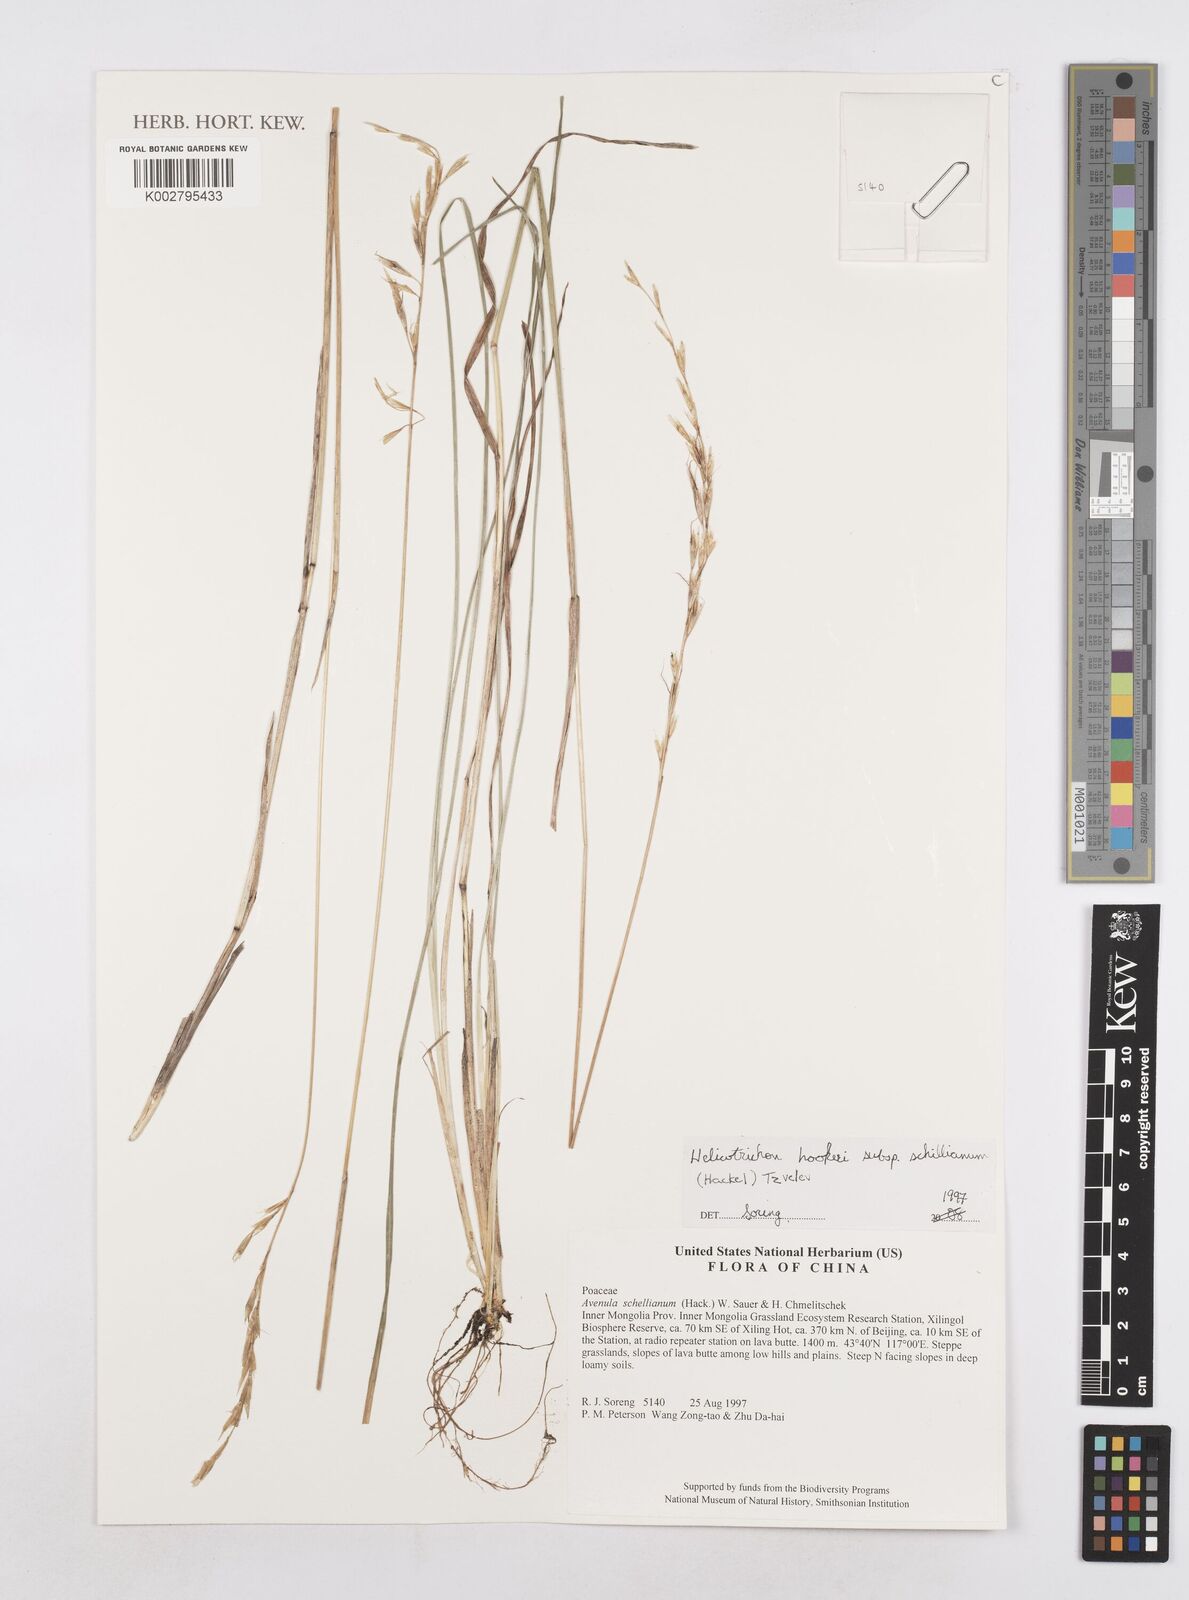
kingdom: Plantae
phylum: Tracheophyta
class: Liliopsida
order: Poales
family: Poaceae
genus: Helictochloa
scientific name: Helictochloa hookeri
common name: Hooker's alpine oatgrass
